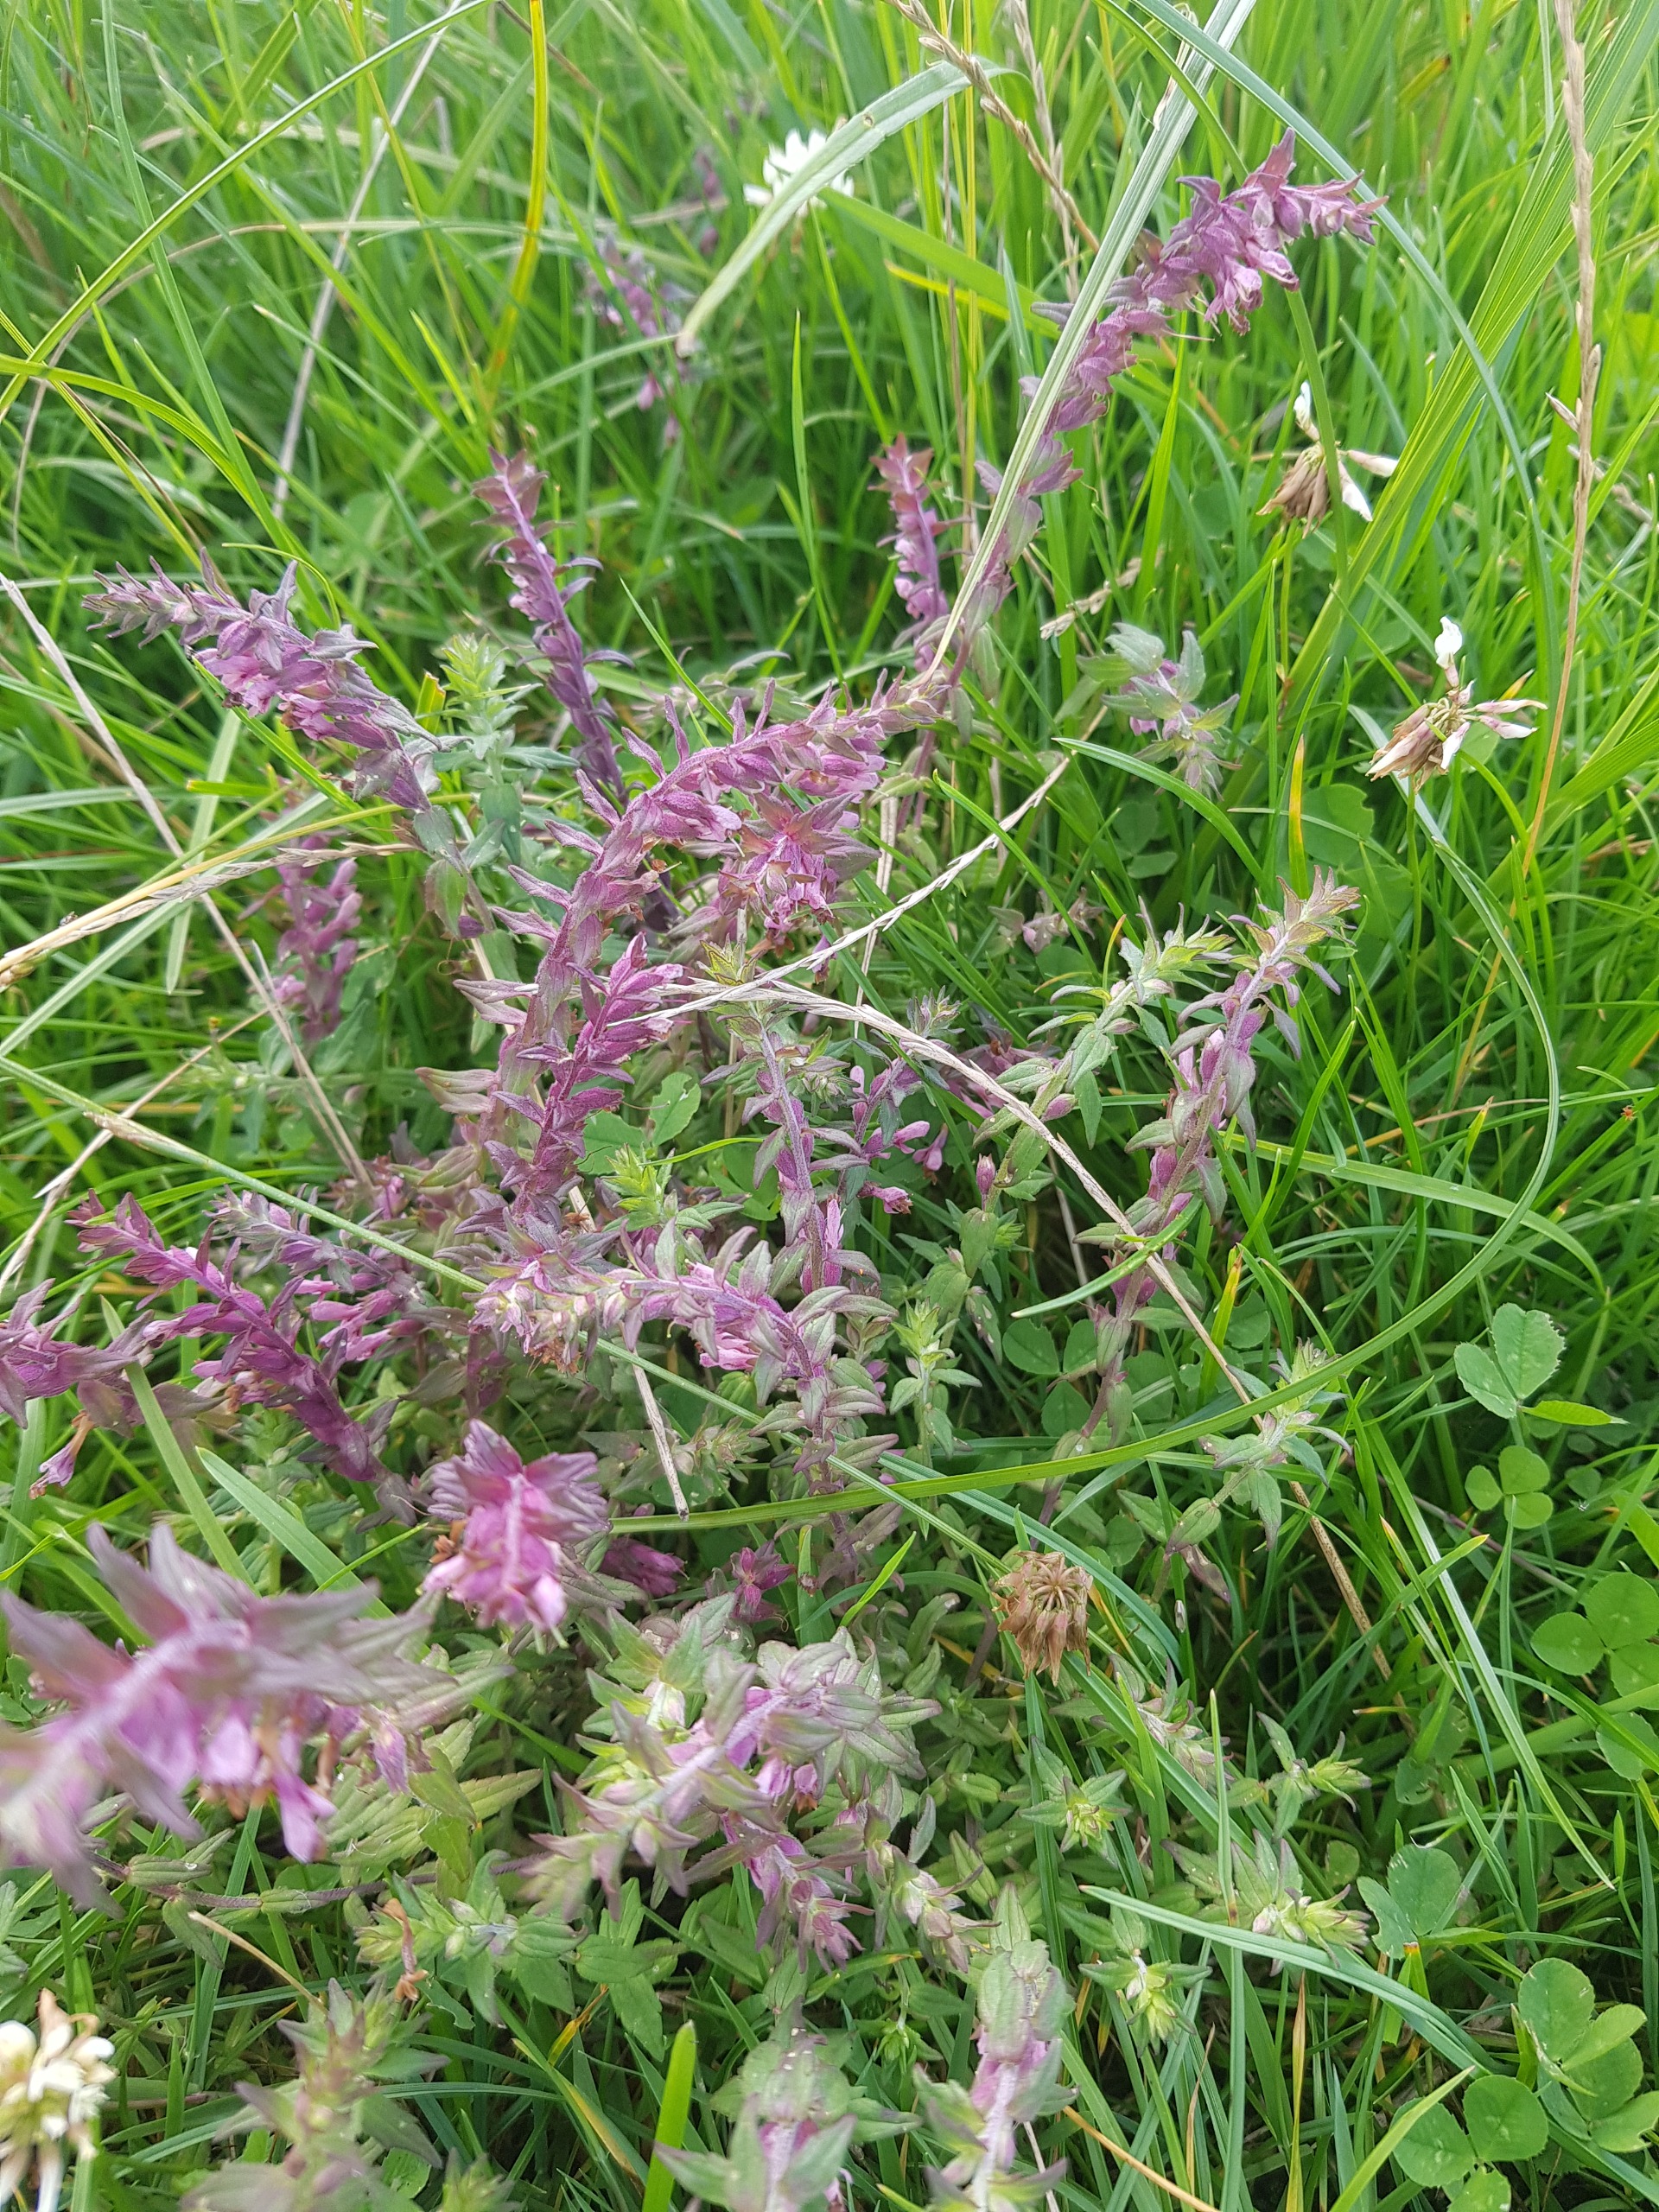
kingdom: Plantae
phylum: Tracheophyta
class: Magnoliopsida
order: Lamiales
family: Orobanchaceae
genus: Odontites
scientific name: Odontites
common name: Rødtopslægten
